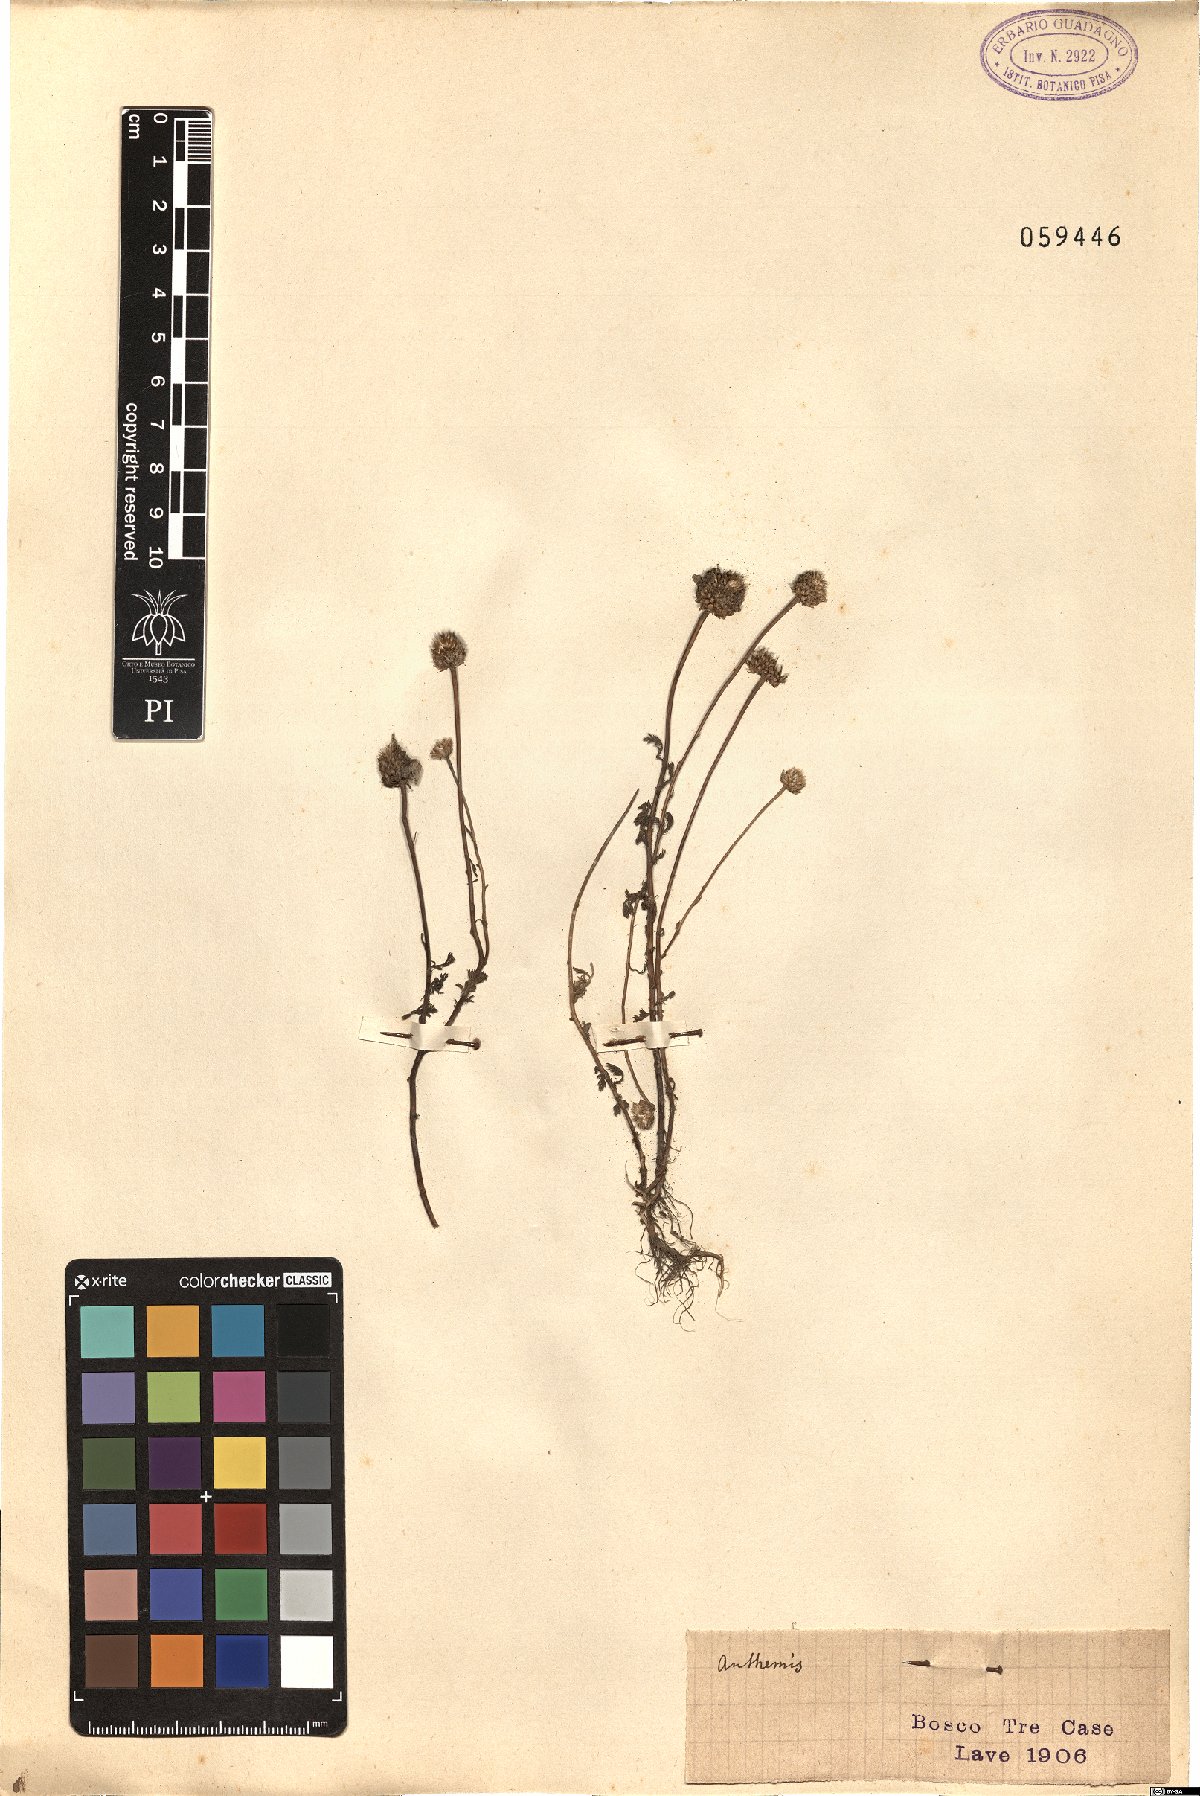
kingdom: Plantae
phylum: Tracheophyta
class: Magnoliopsida
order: Asterales
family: Asteraceae
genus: Anthemis
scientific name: Anthemis
